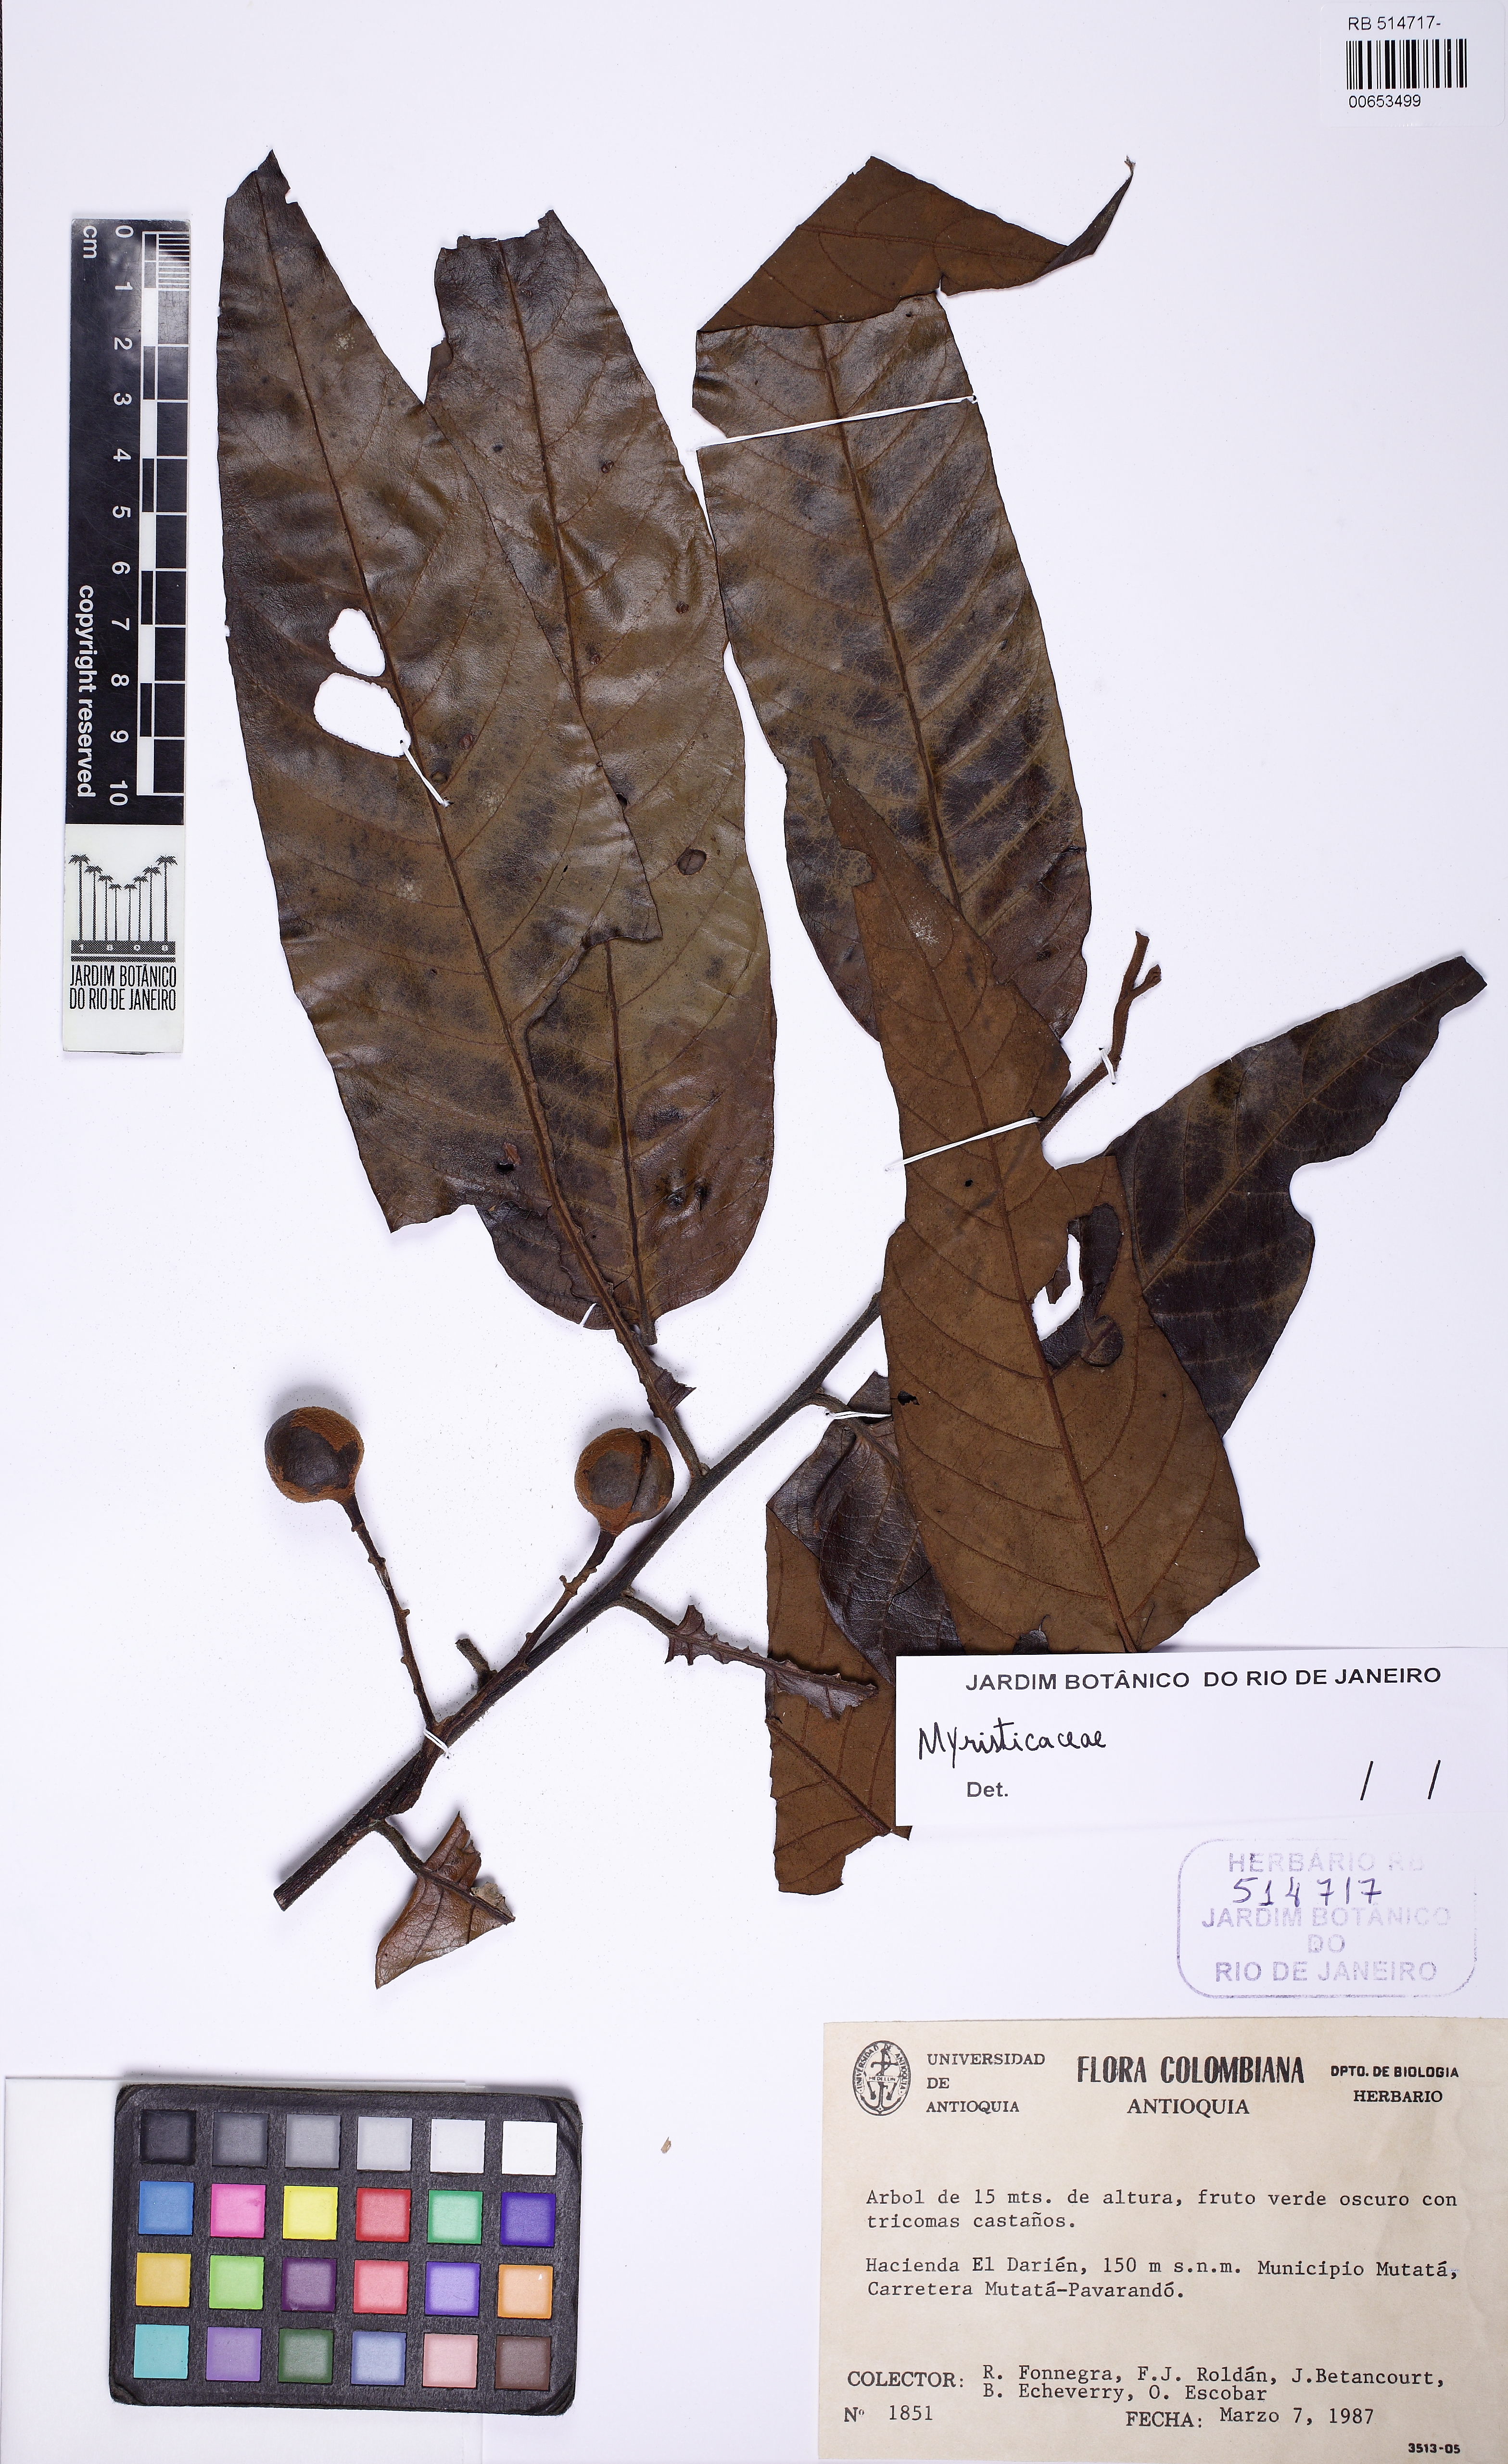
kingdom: Plantae
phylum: Tracheophyta
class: Magnoliopsida
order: Magnoliales
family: Myristicaceae
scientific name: Myristicaceae
